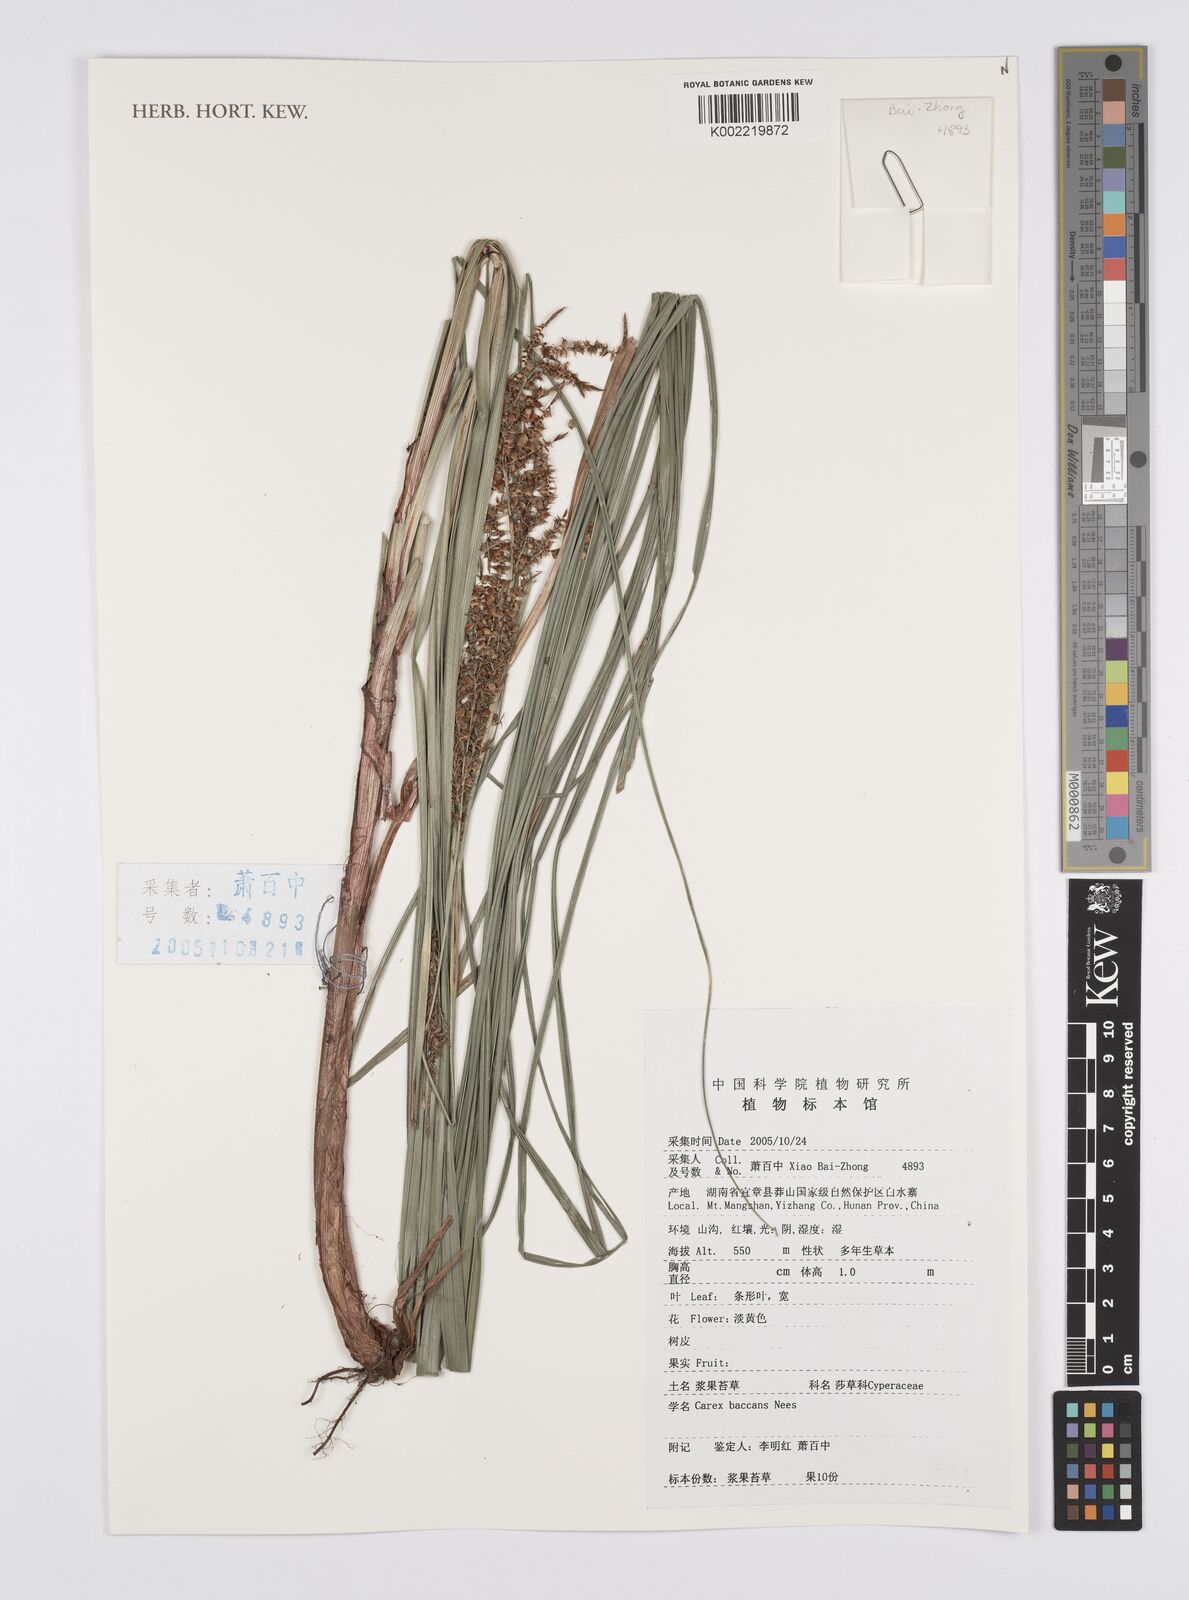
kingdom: Plantae
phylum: Tracheophyta
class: Liliopsida
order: Poales
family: Cyperaceae
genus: Carex
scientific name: Carex baccans
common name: Crimson seeded sedge
